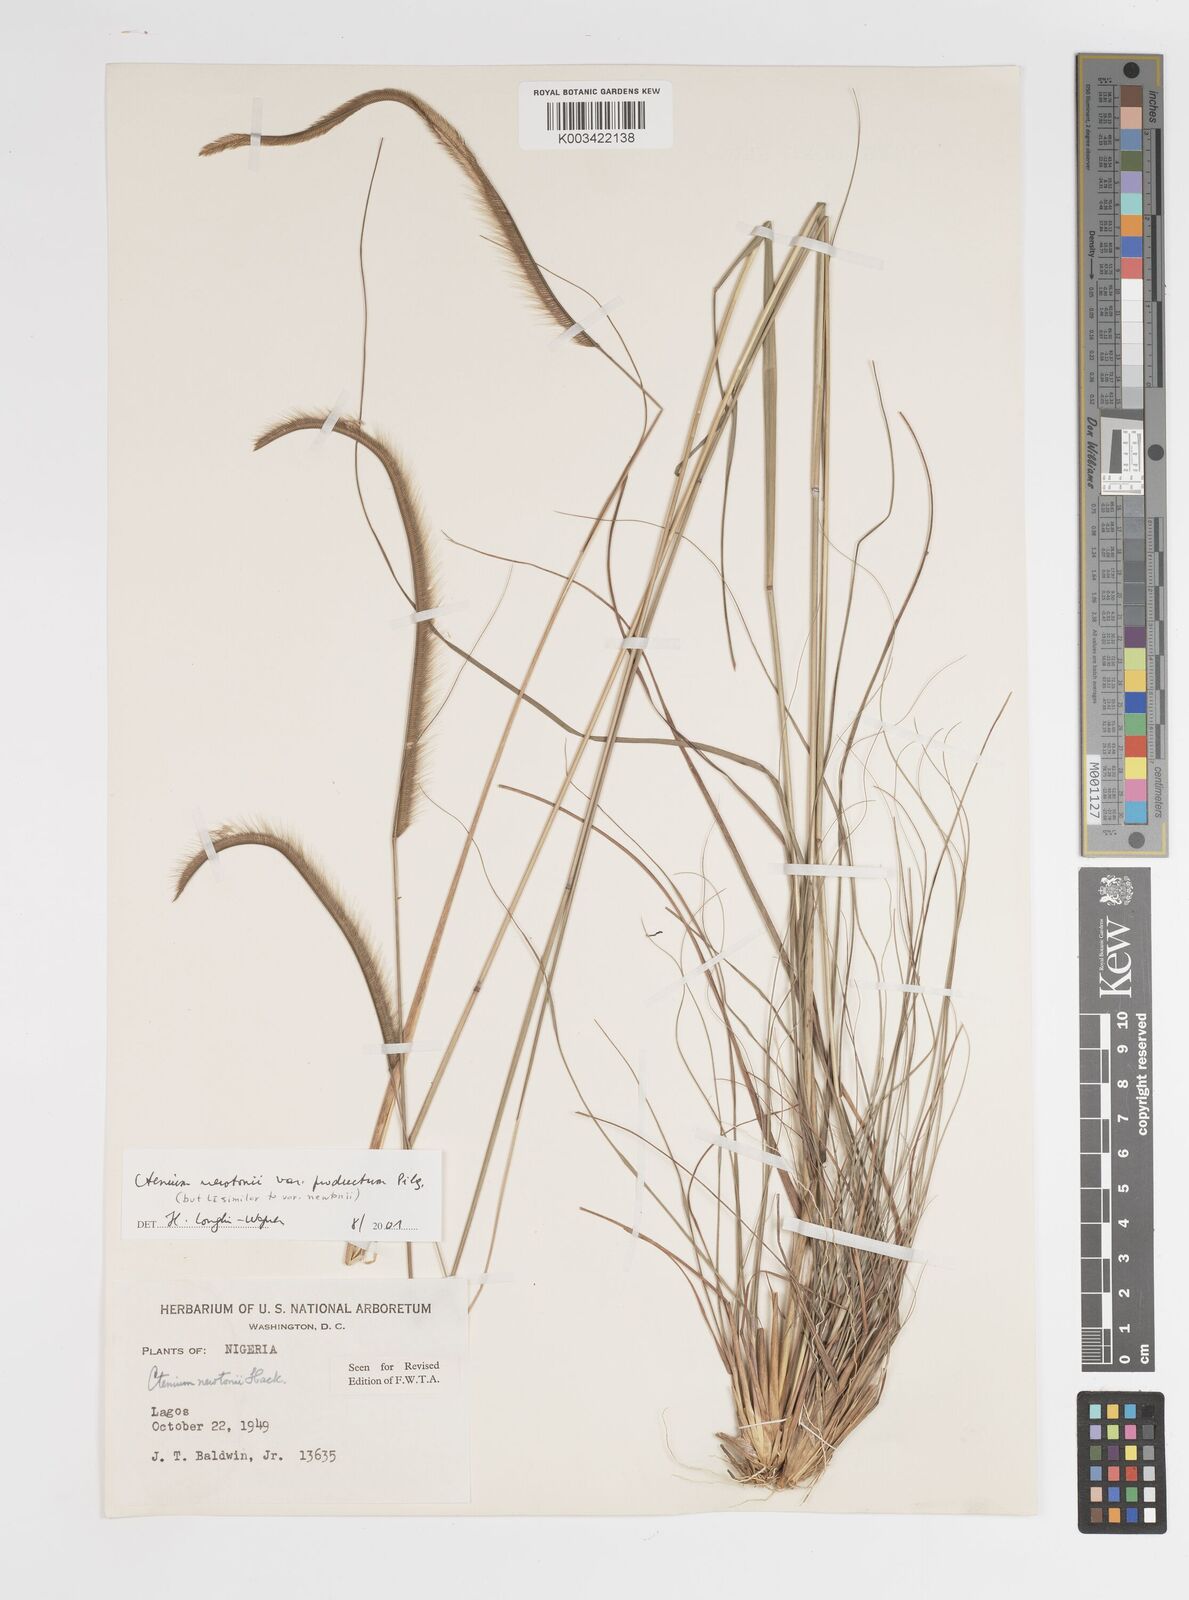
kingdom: Plantae
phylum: Tracheophyta
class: Liliopsida
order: Poales
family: Poaceae
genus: Ctenium
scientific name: Ctenium newtonii
